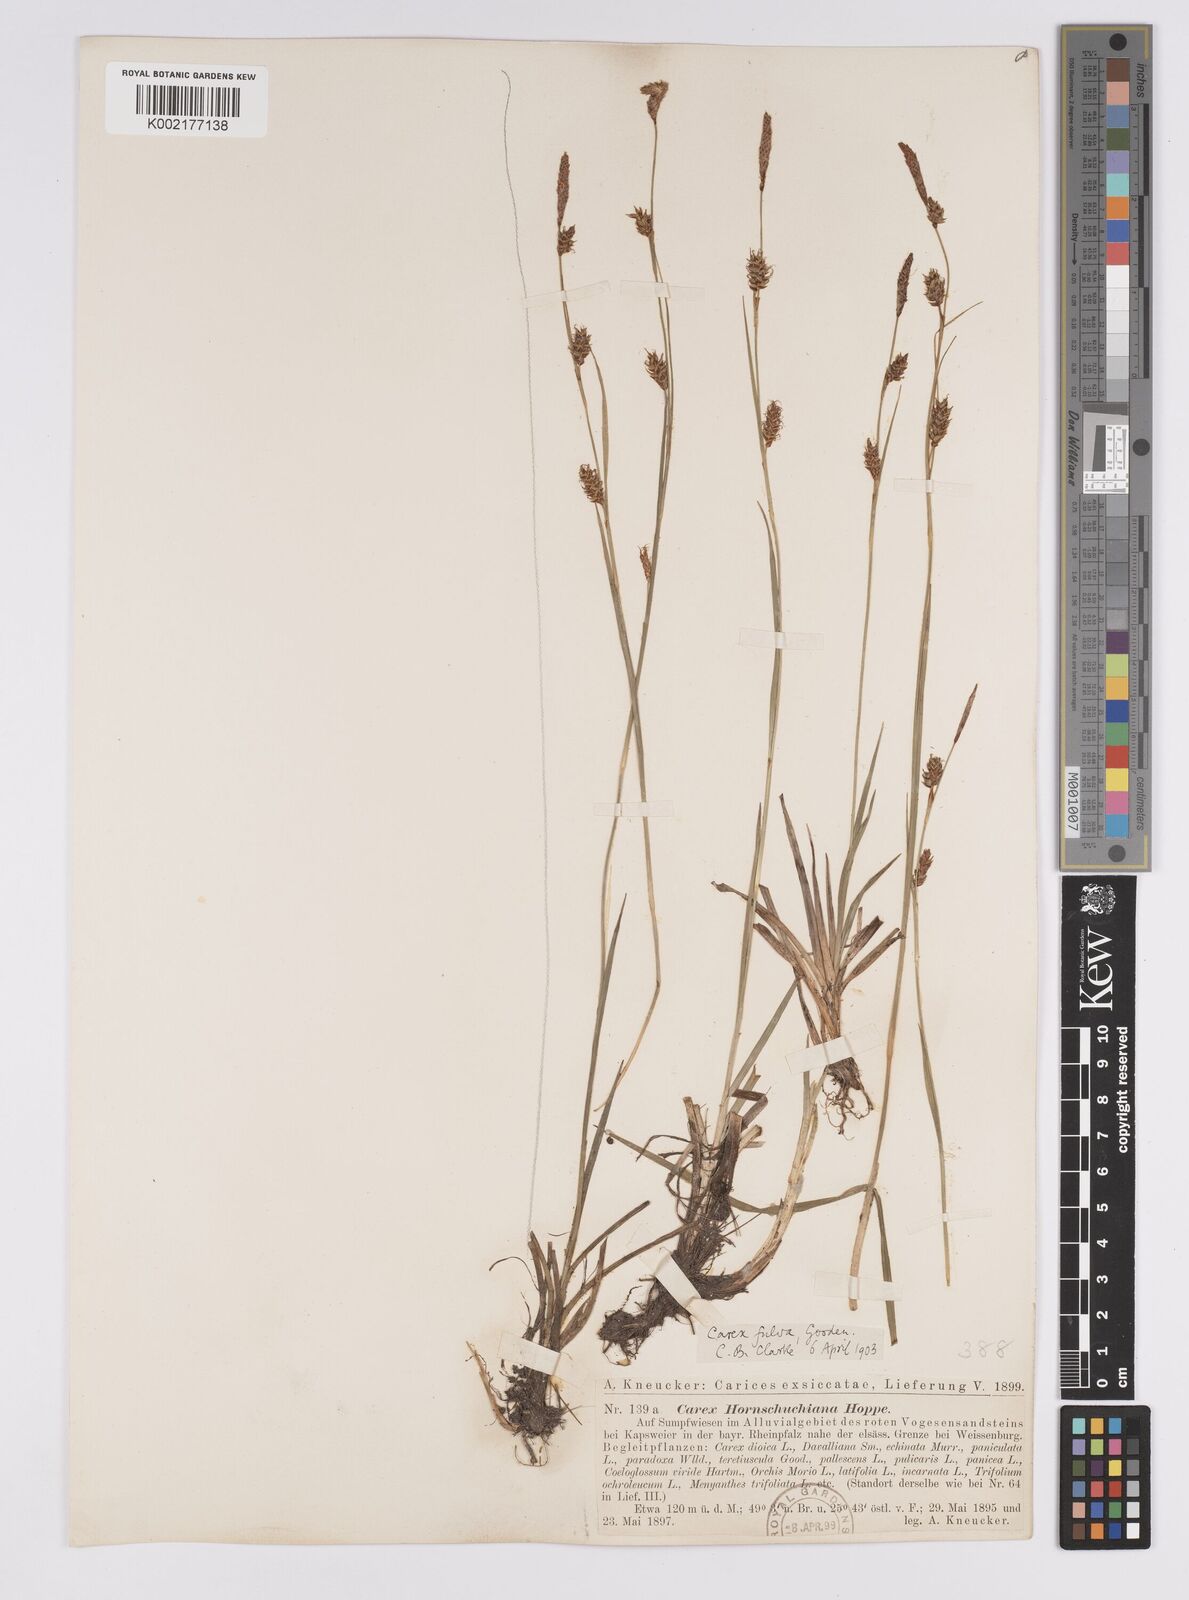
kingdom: Plantae
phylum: Tracheophyta
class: Liliopsida
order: Poales
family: Cyperaceae
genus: Carex
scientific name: Carex hostiana
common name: Tawny sedge
